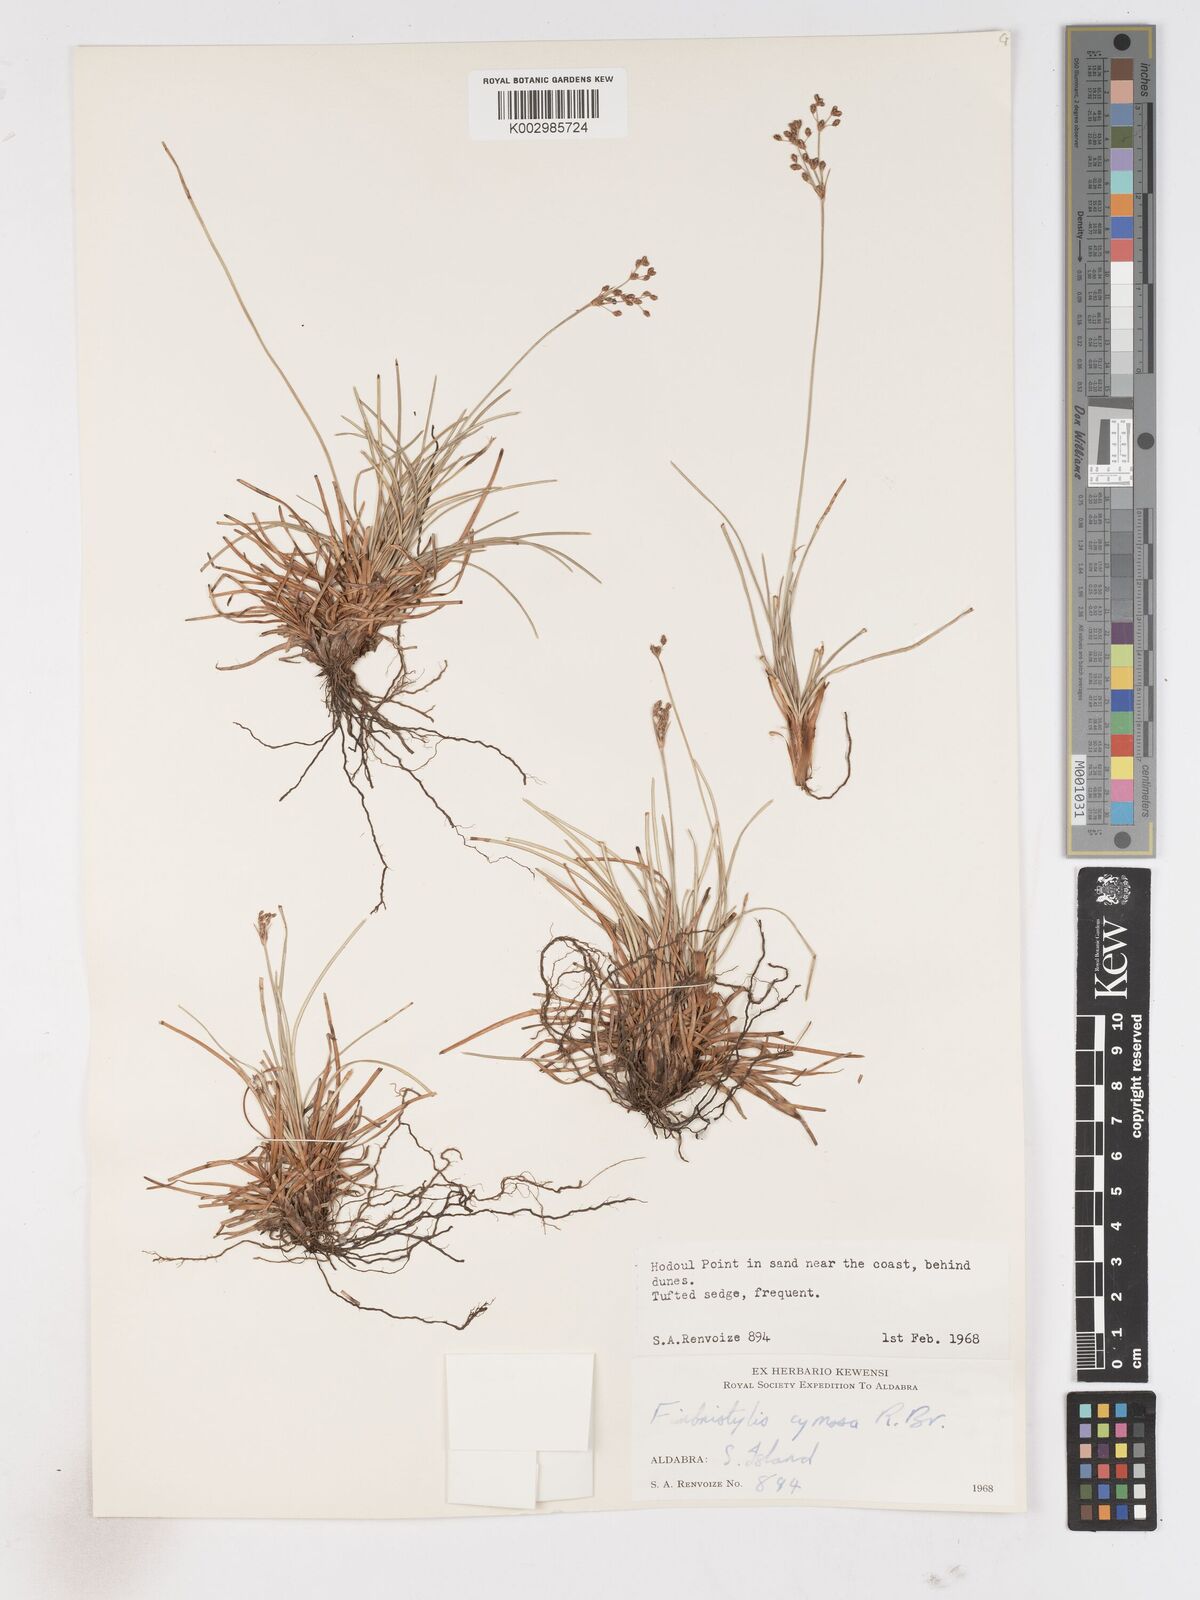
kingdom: Plantae
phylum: Tracheophyta
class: Liliopsida
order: Poales
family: Cyperaceae
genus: Fimbristylis
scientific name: Fimbristylis cymosa
